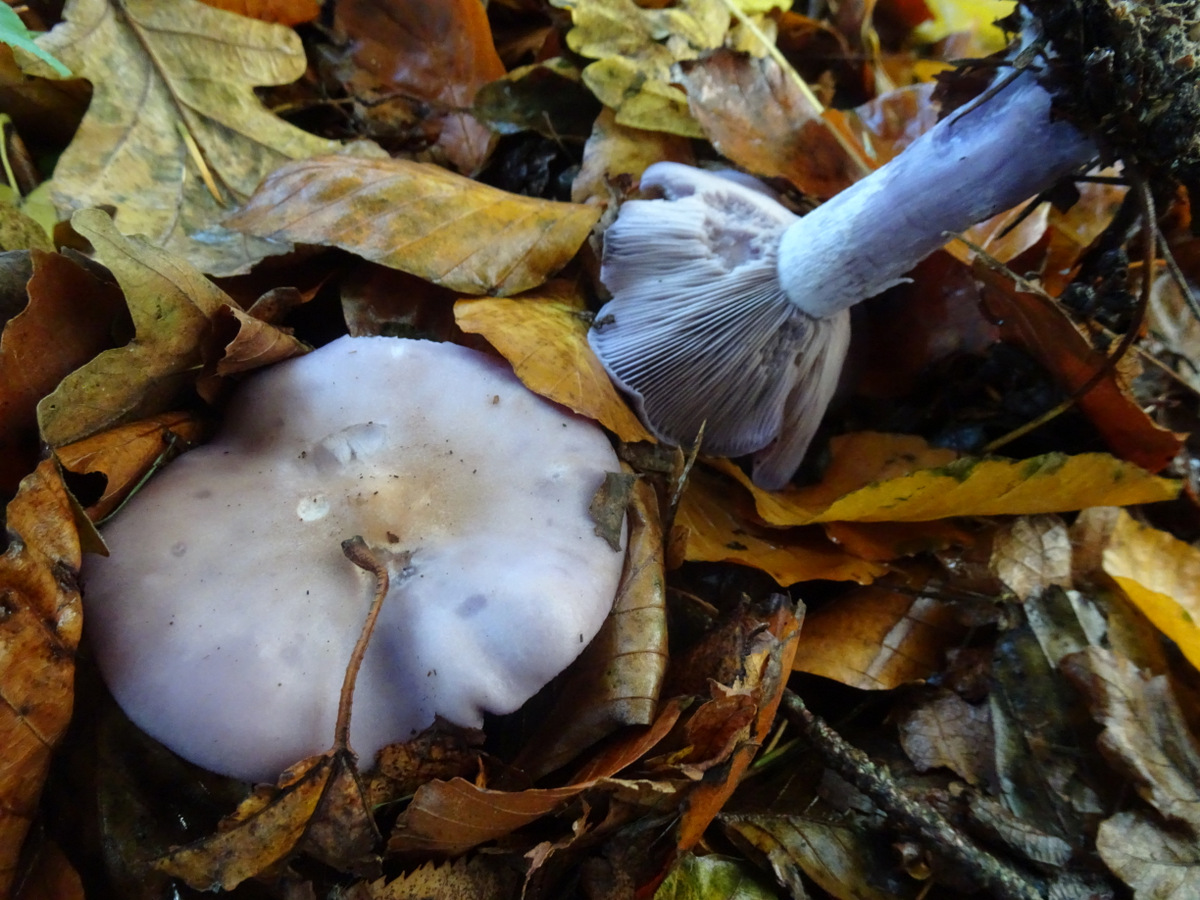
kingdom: Fungi
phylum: Basidiomycota
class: Agaricomycetes
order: Agaricales
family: Tricholomataceae
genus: Lepista
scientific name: Lepista nuda
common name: violet hekseringshat
